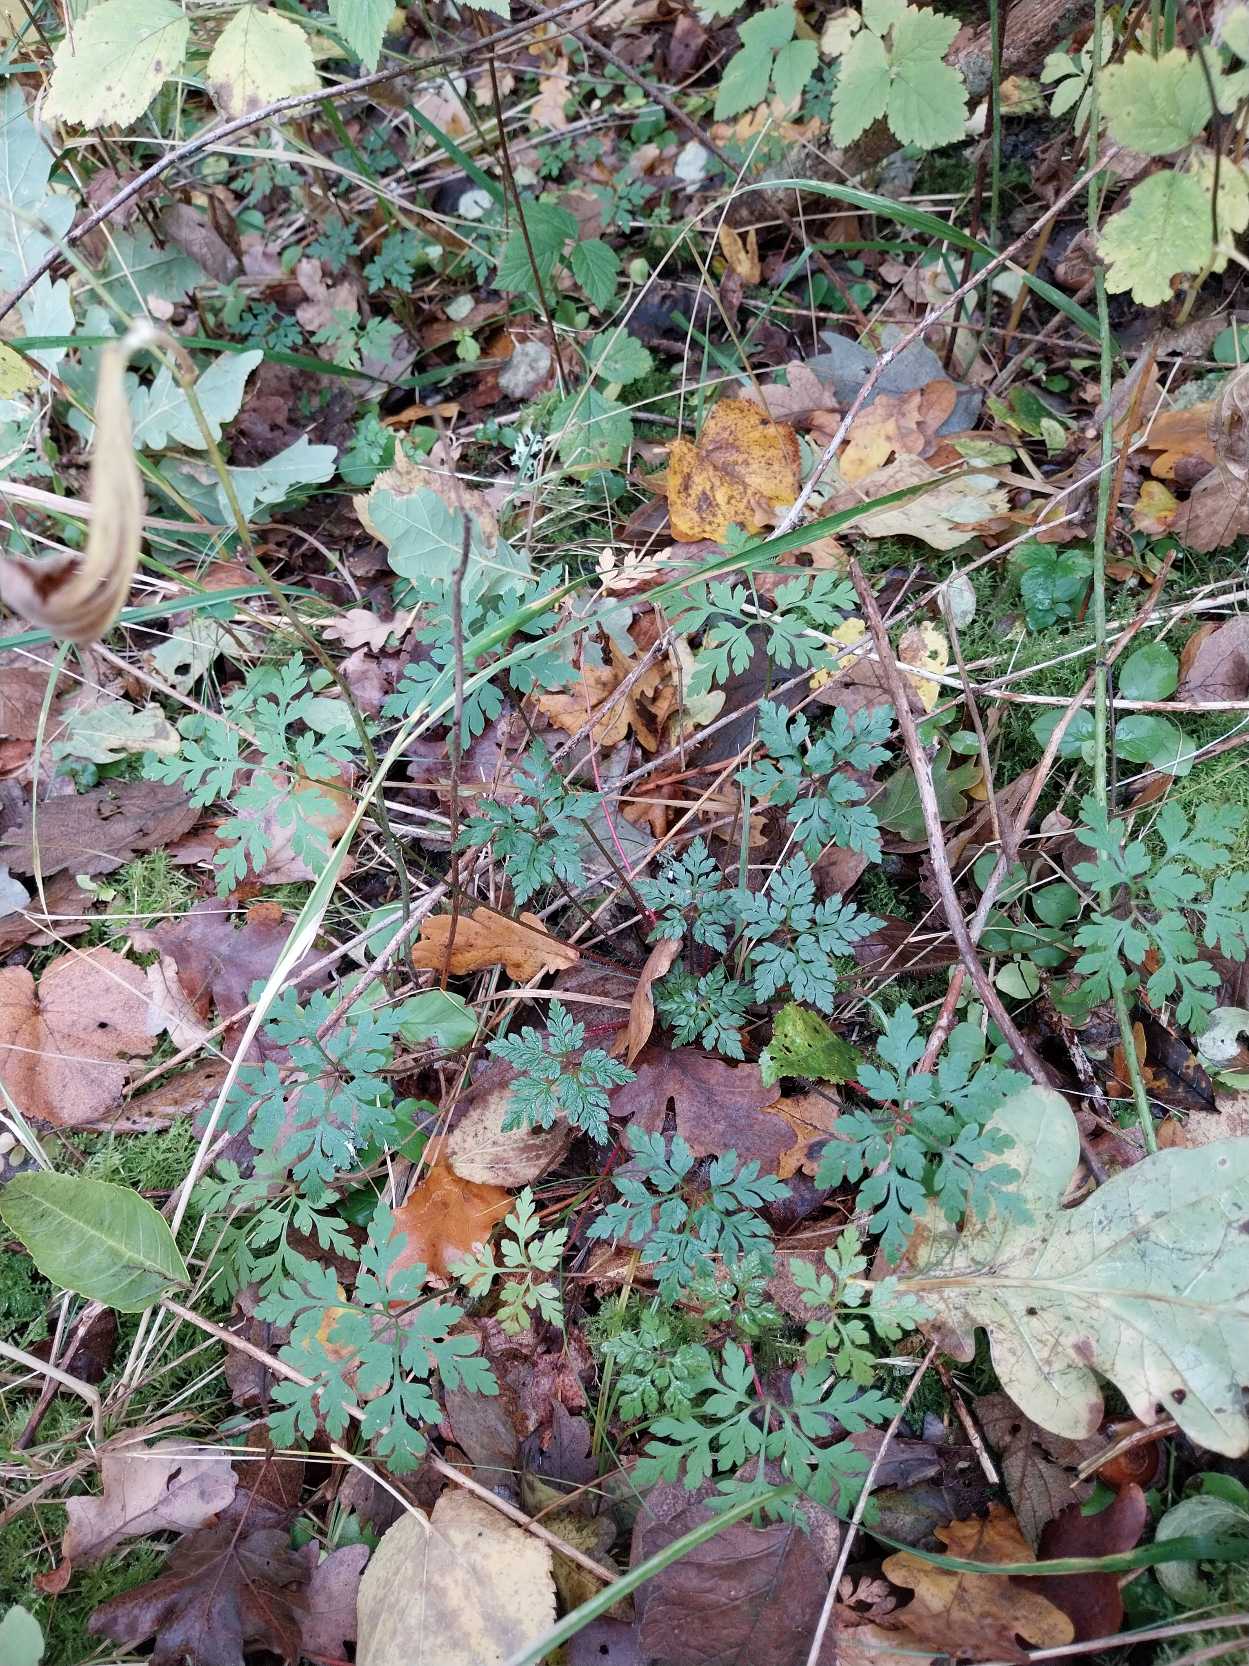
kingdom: Plantae
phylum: Tracheophyta
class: Magnoliopsida
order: Geraniales
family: Geraniaceae
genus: Geranium
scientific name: Geranium robertianum
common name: Stinkende storkenæb
